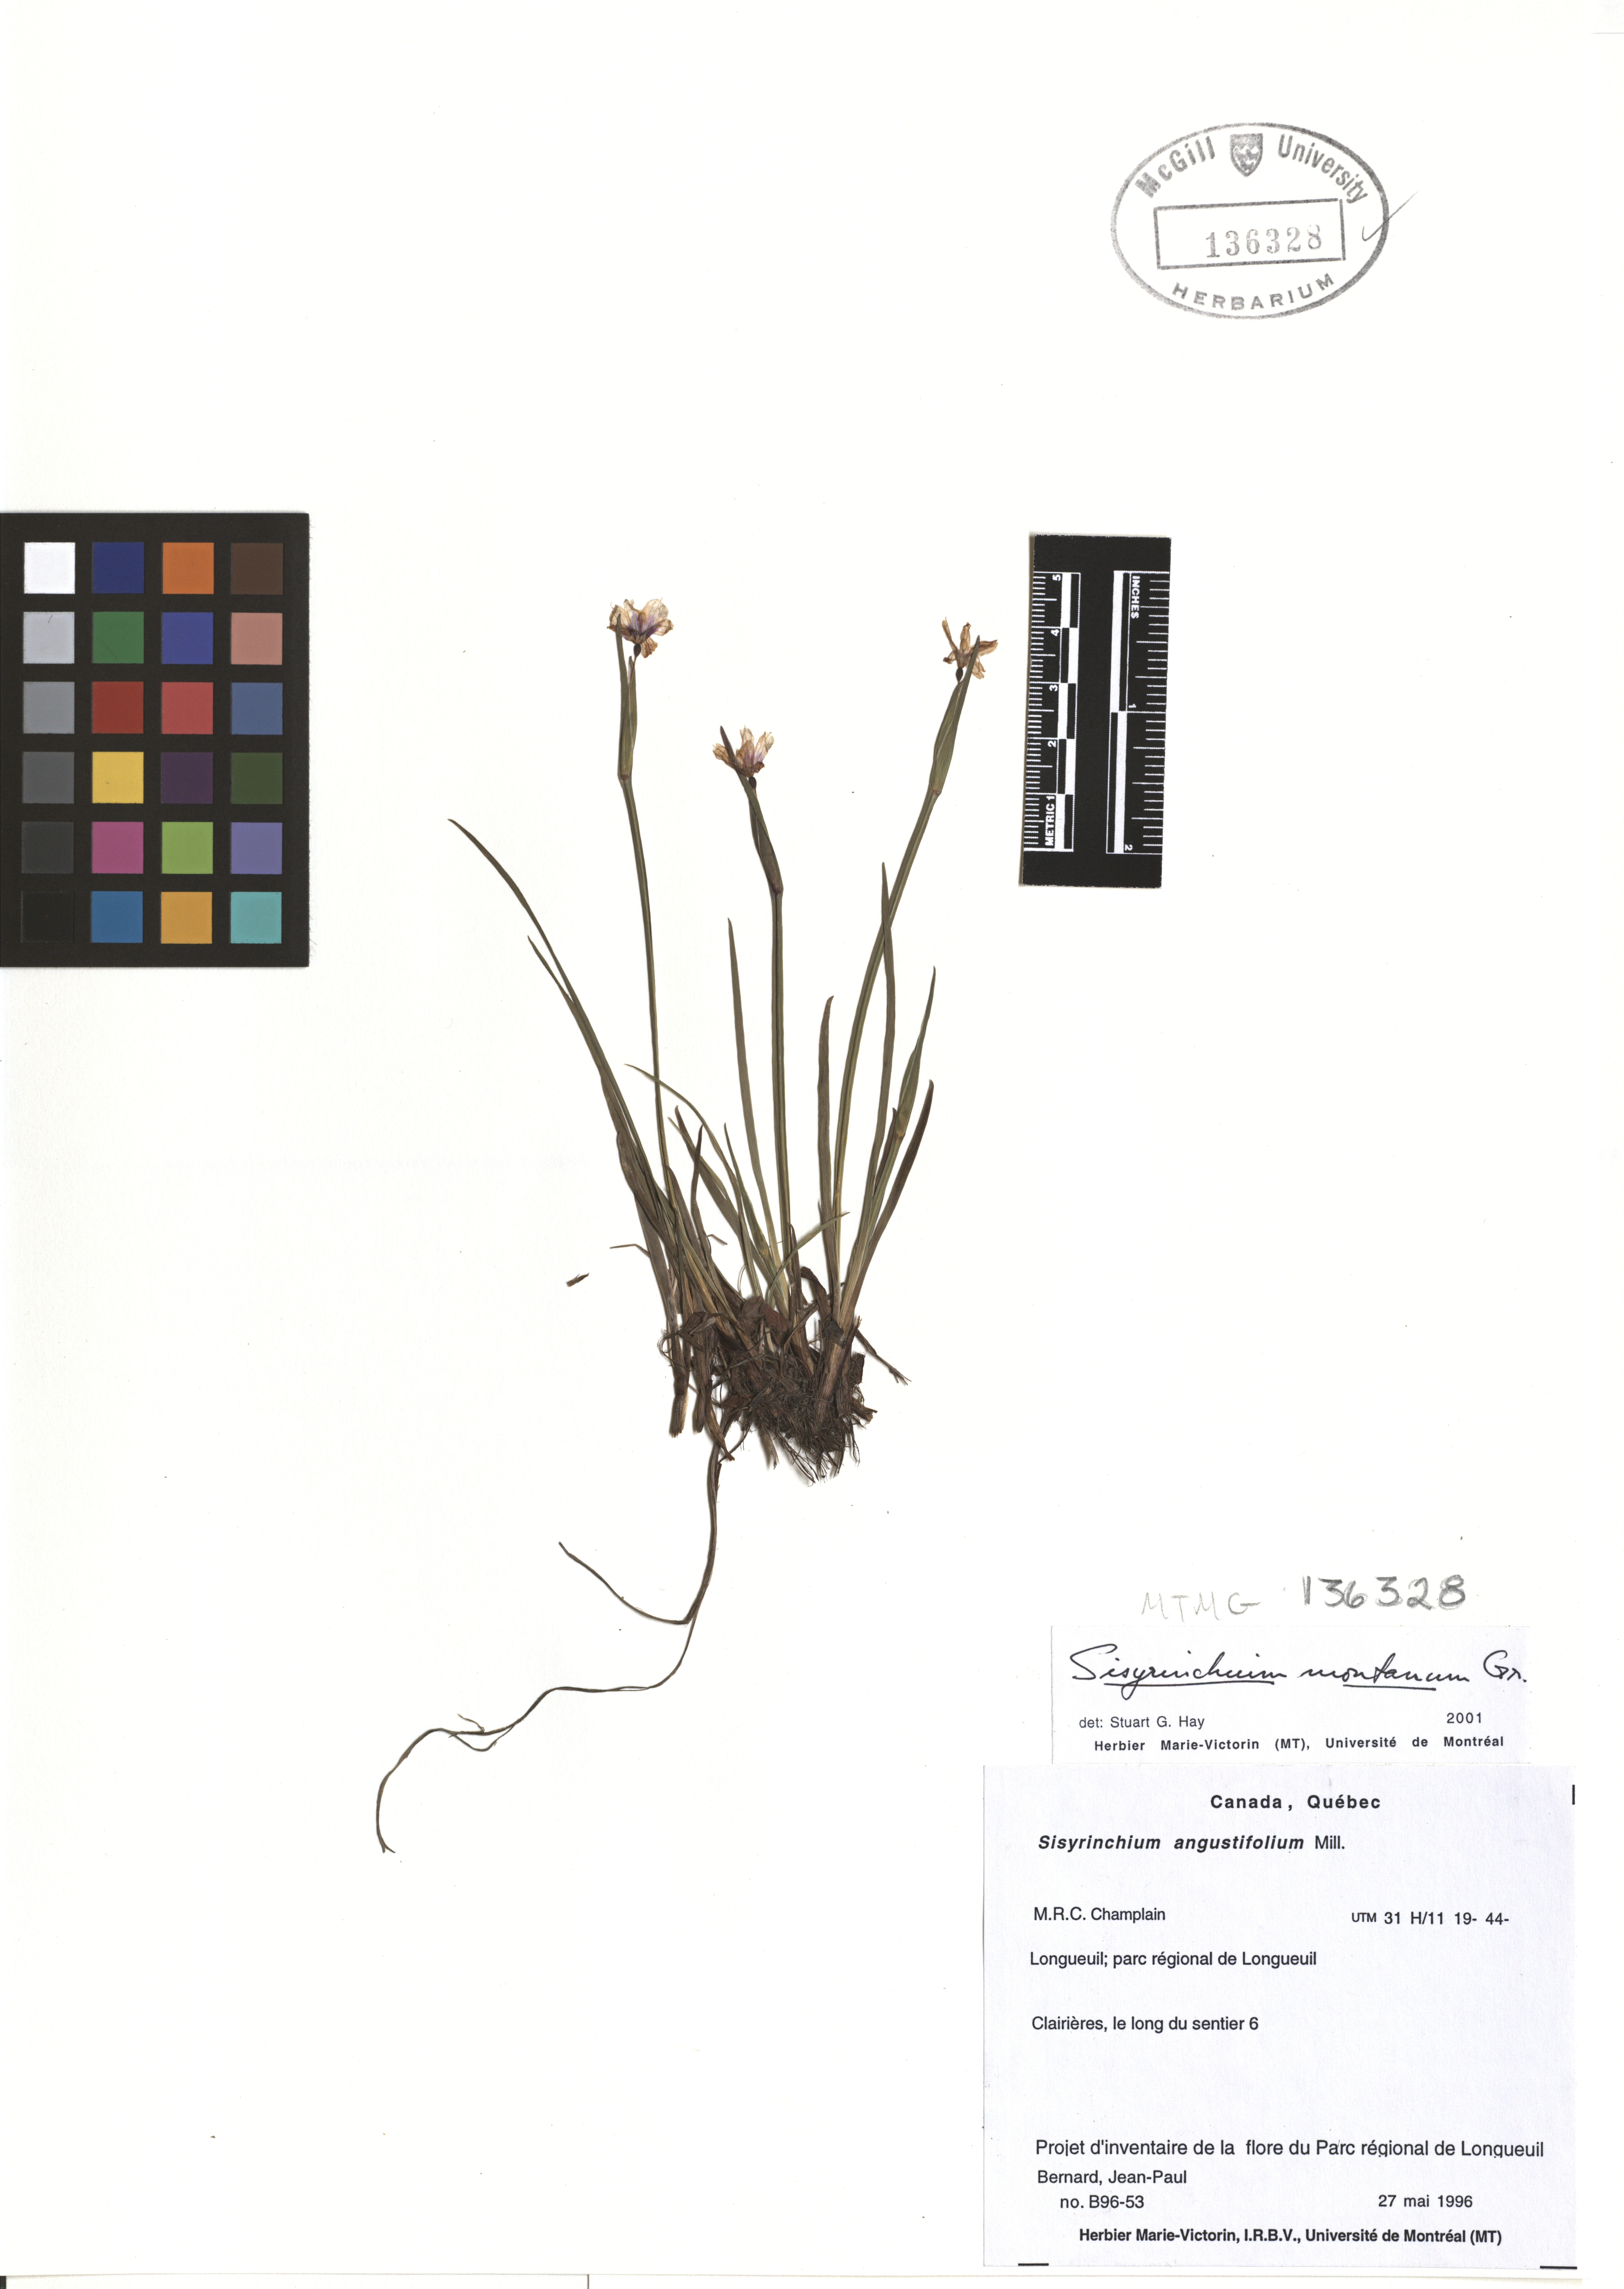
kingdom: Plantae
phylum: Tracheophyta
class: Liliopsida
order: Asparagales
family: Iridaceae
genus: Sisyrinchium
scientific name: Sisyrinchium montanum
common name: American blue-eyed-grass
